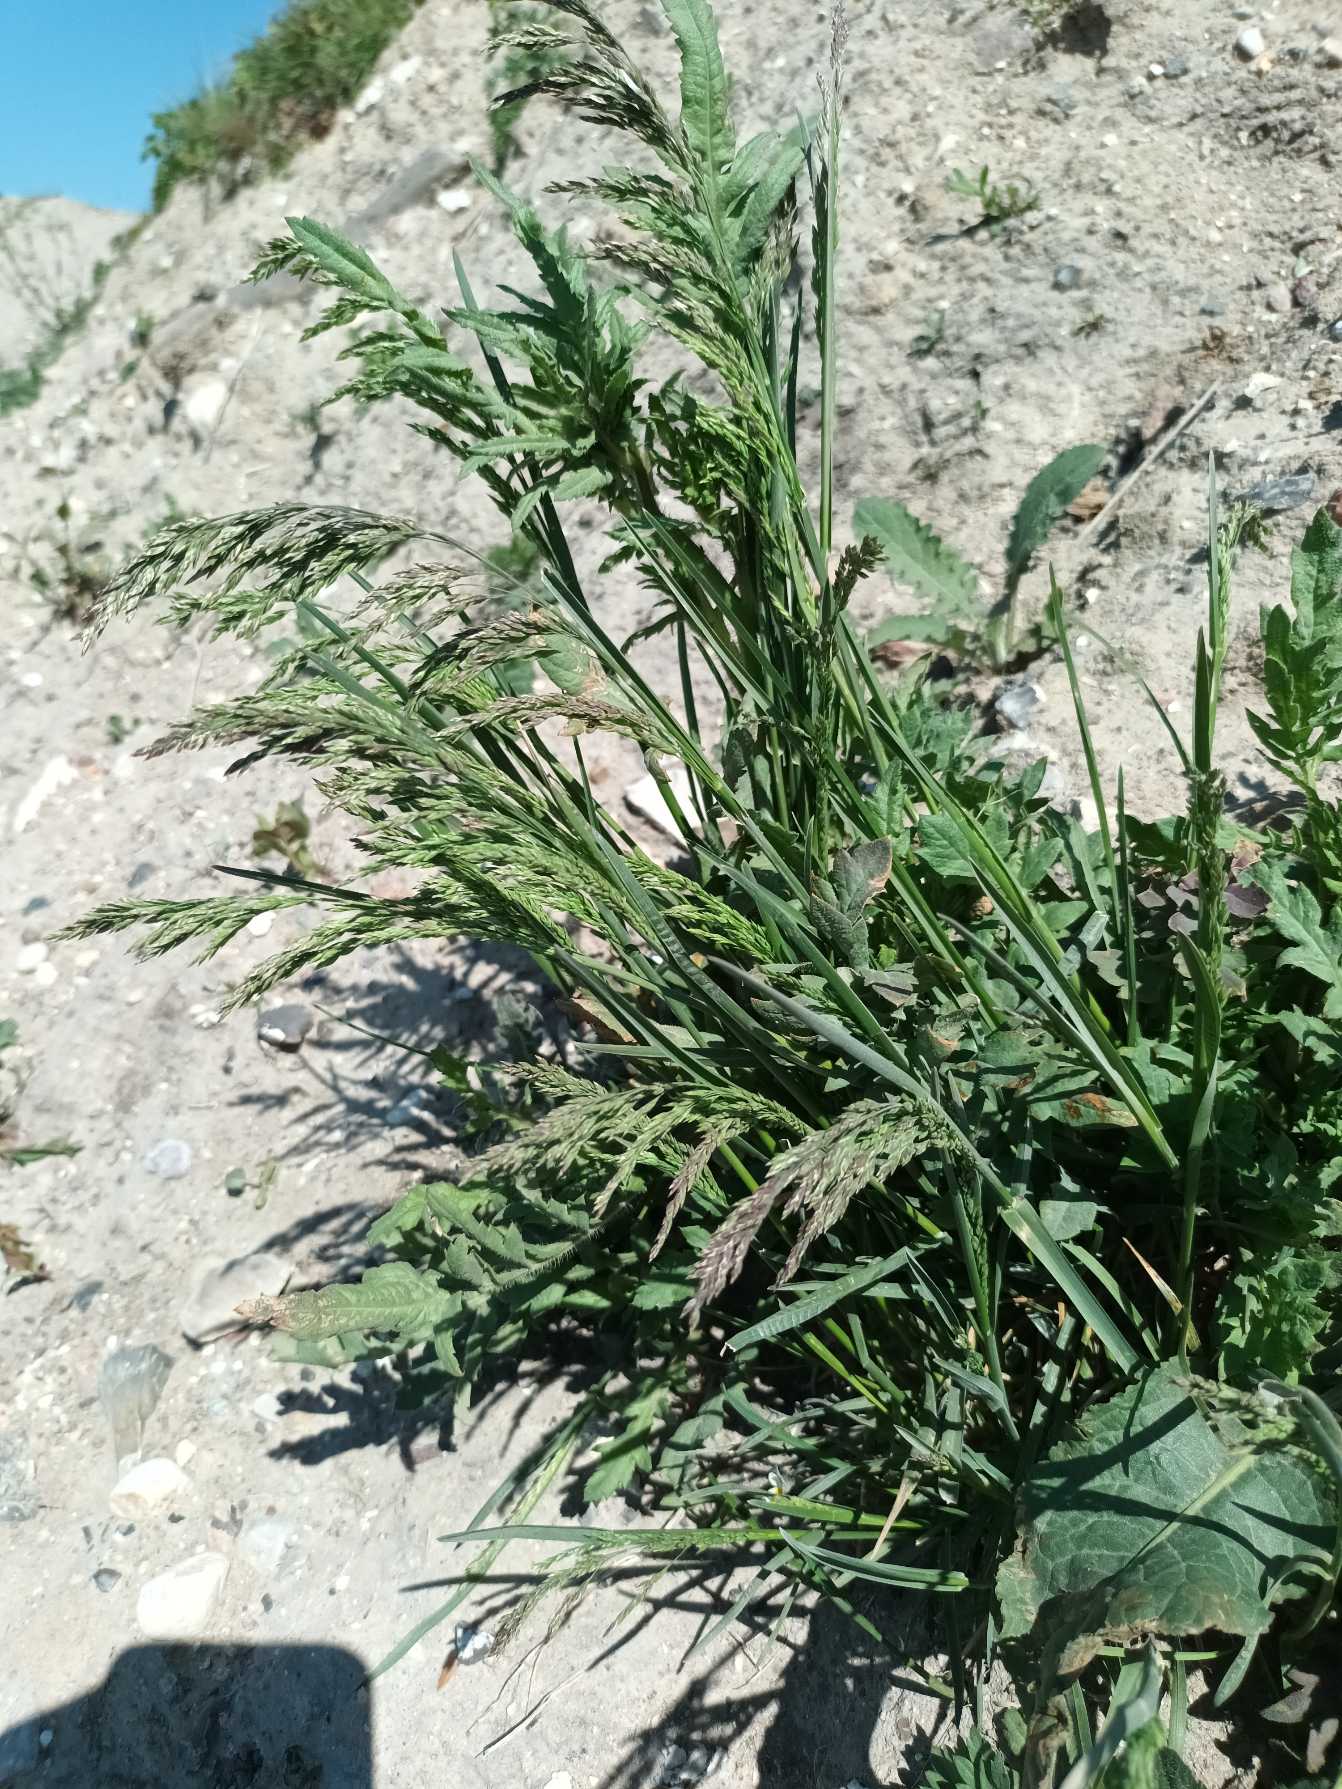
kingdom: Plantae
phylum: Tracheophyta
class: Liliopsida
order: Poales
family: Poaceae
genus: Poa
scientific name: Poa pratensis
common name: Eng-rapgræs
